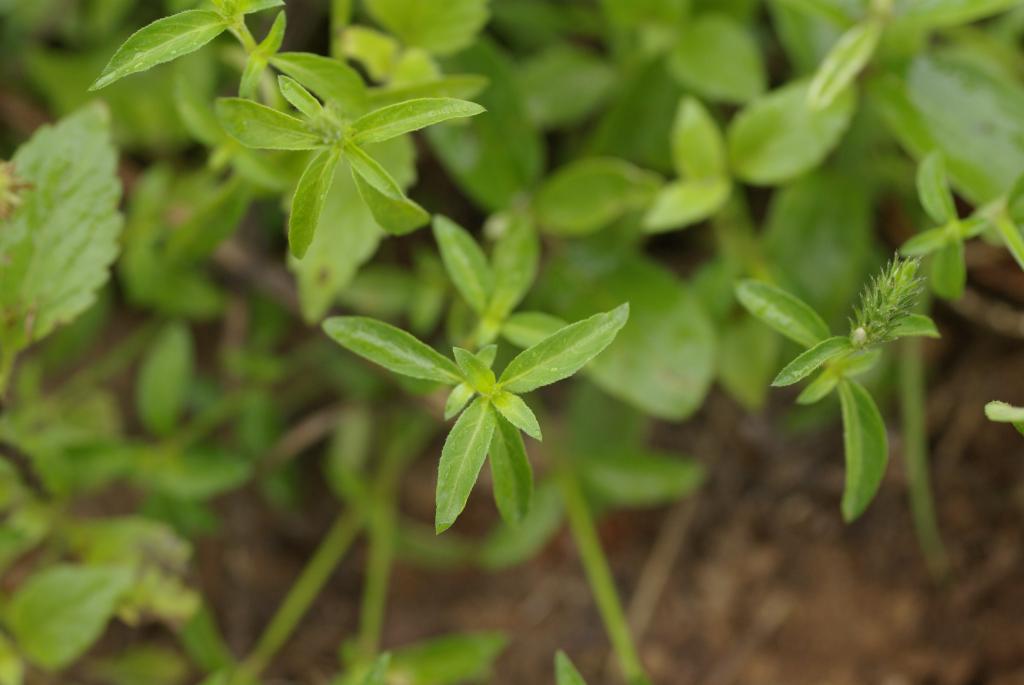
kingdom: Plantae
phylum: Tracheophyta
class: Magnoliopsida
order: Lamiales
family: Acanthaceae
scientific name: Acanthaceae
